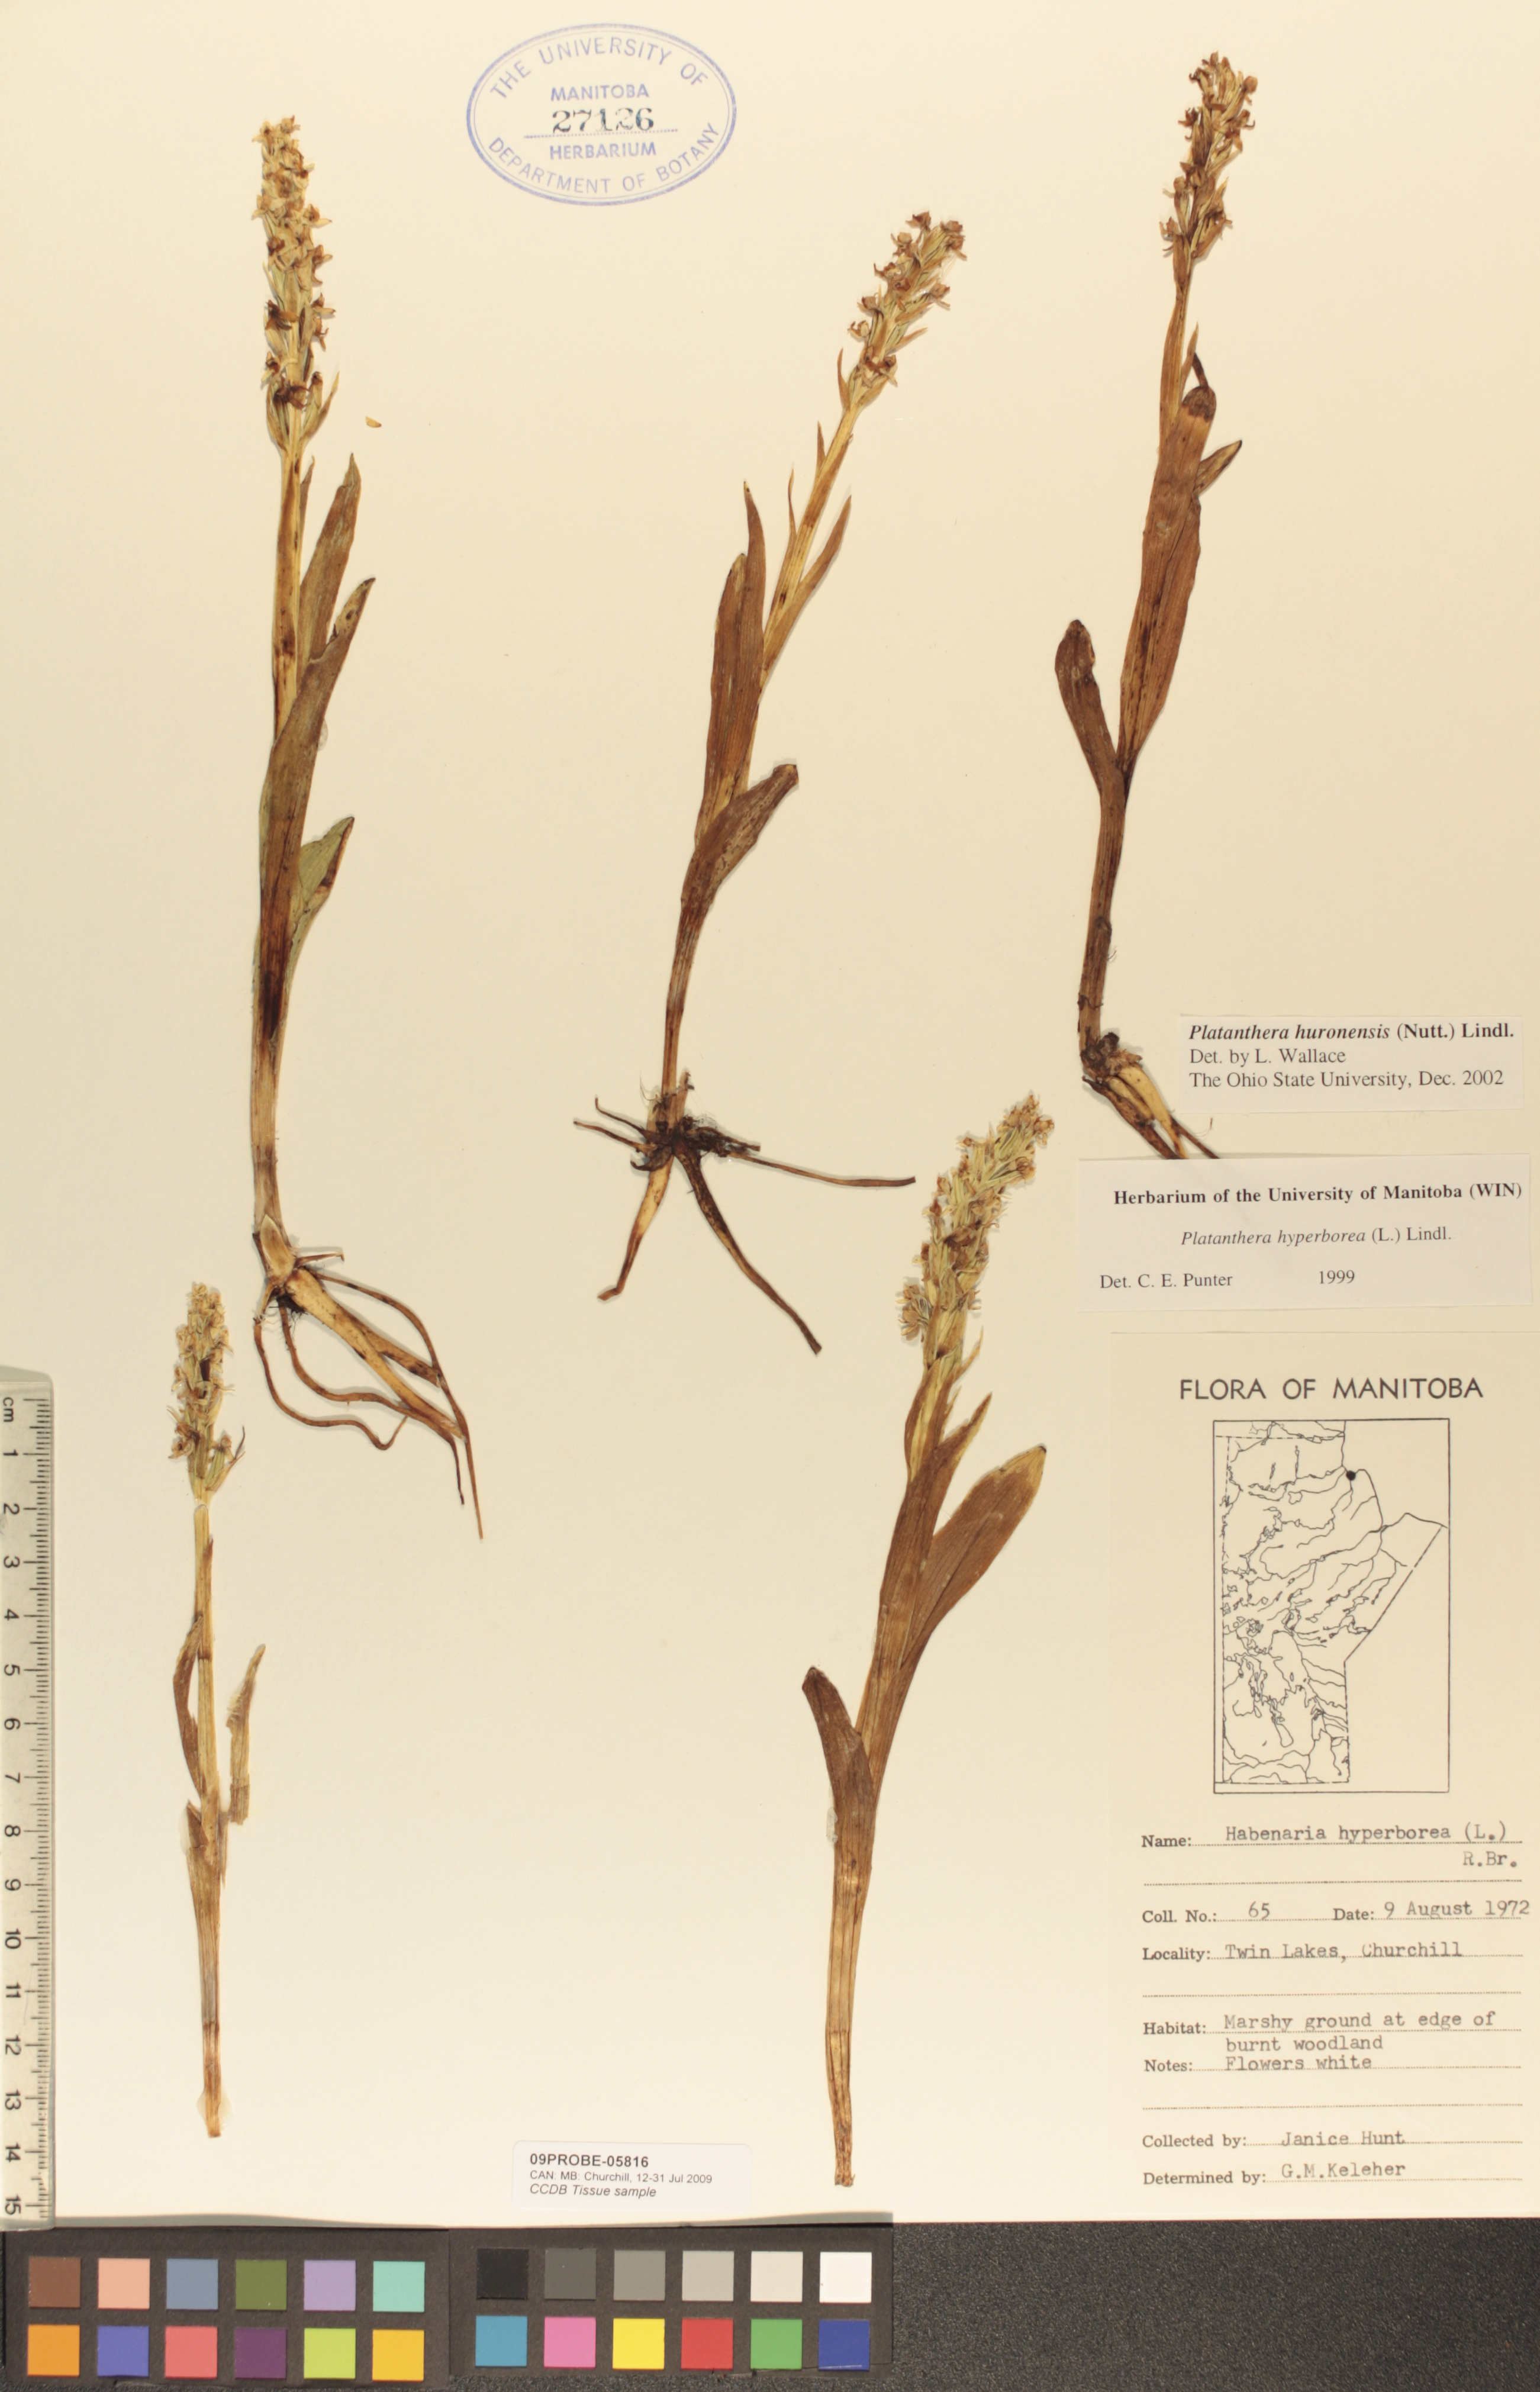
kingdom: Plantae
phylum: Tracheophyta
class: Liliopsida
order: Asparagales
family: Orchidaceae
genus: Platanthera
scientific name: Platanthera huronensis
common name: Fragrant green orchid
